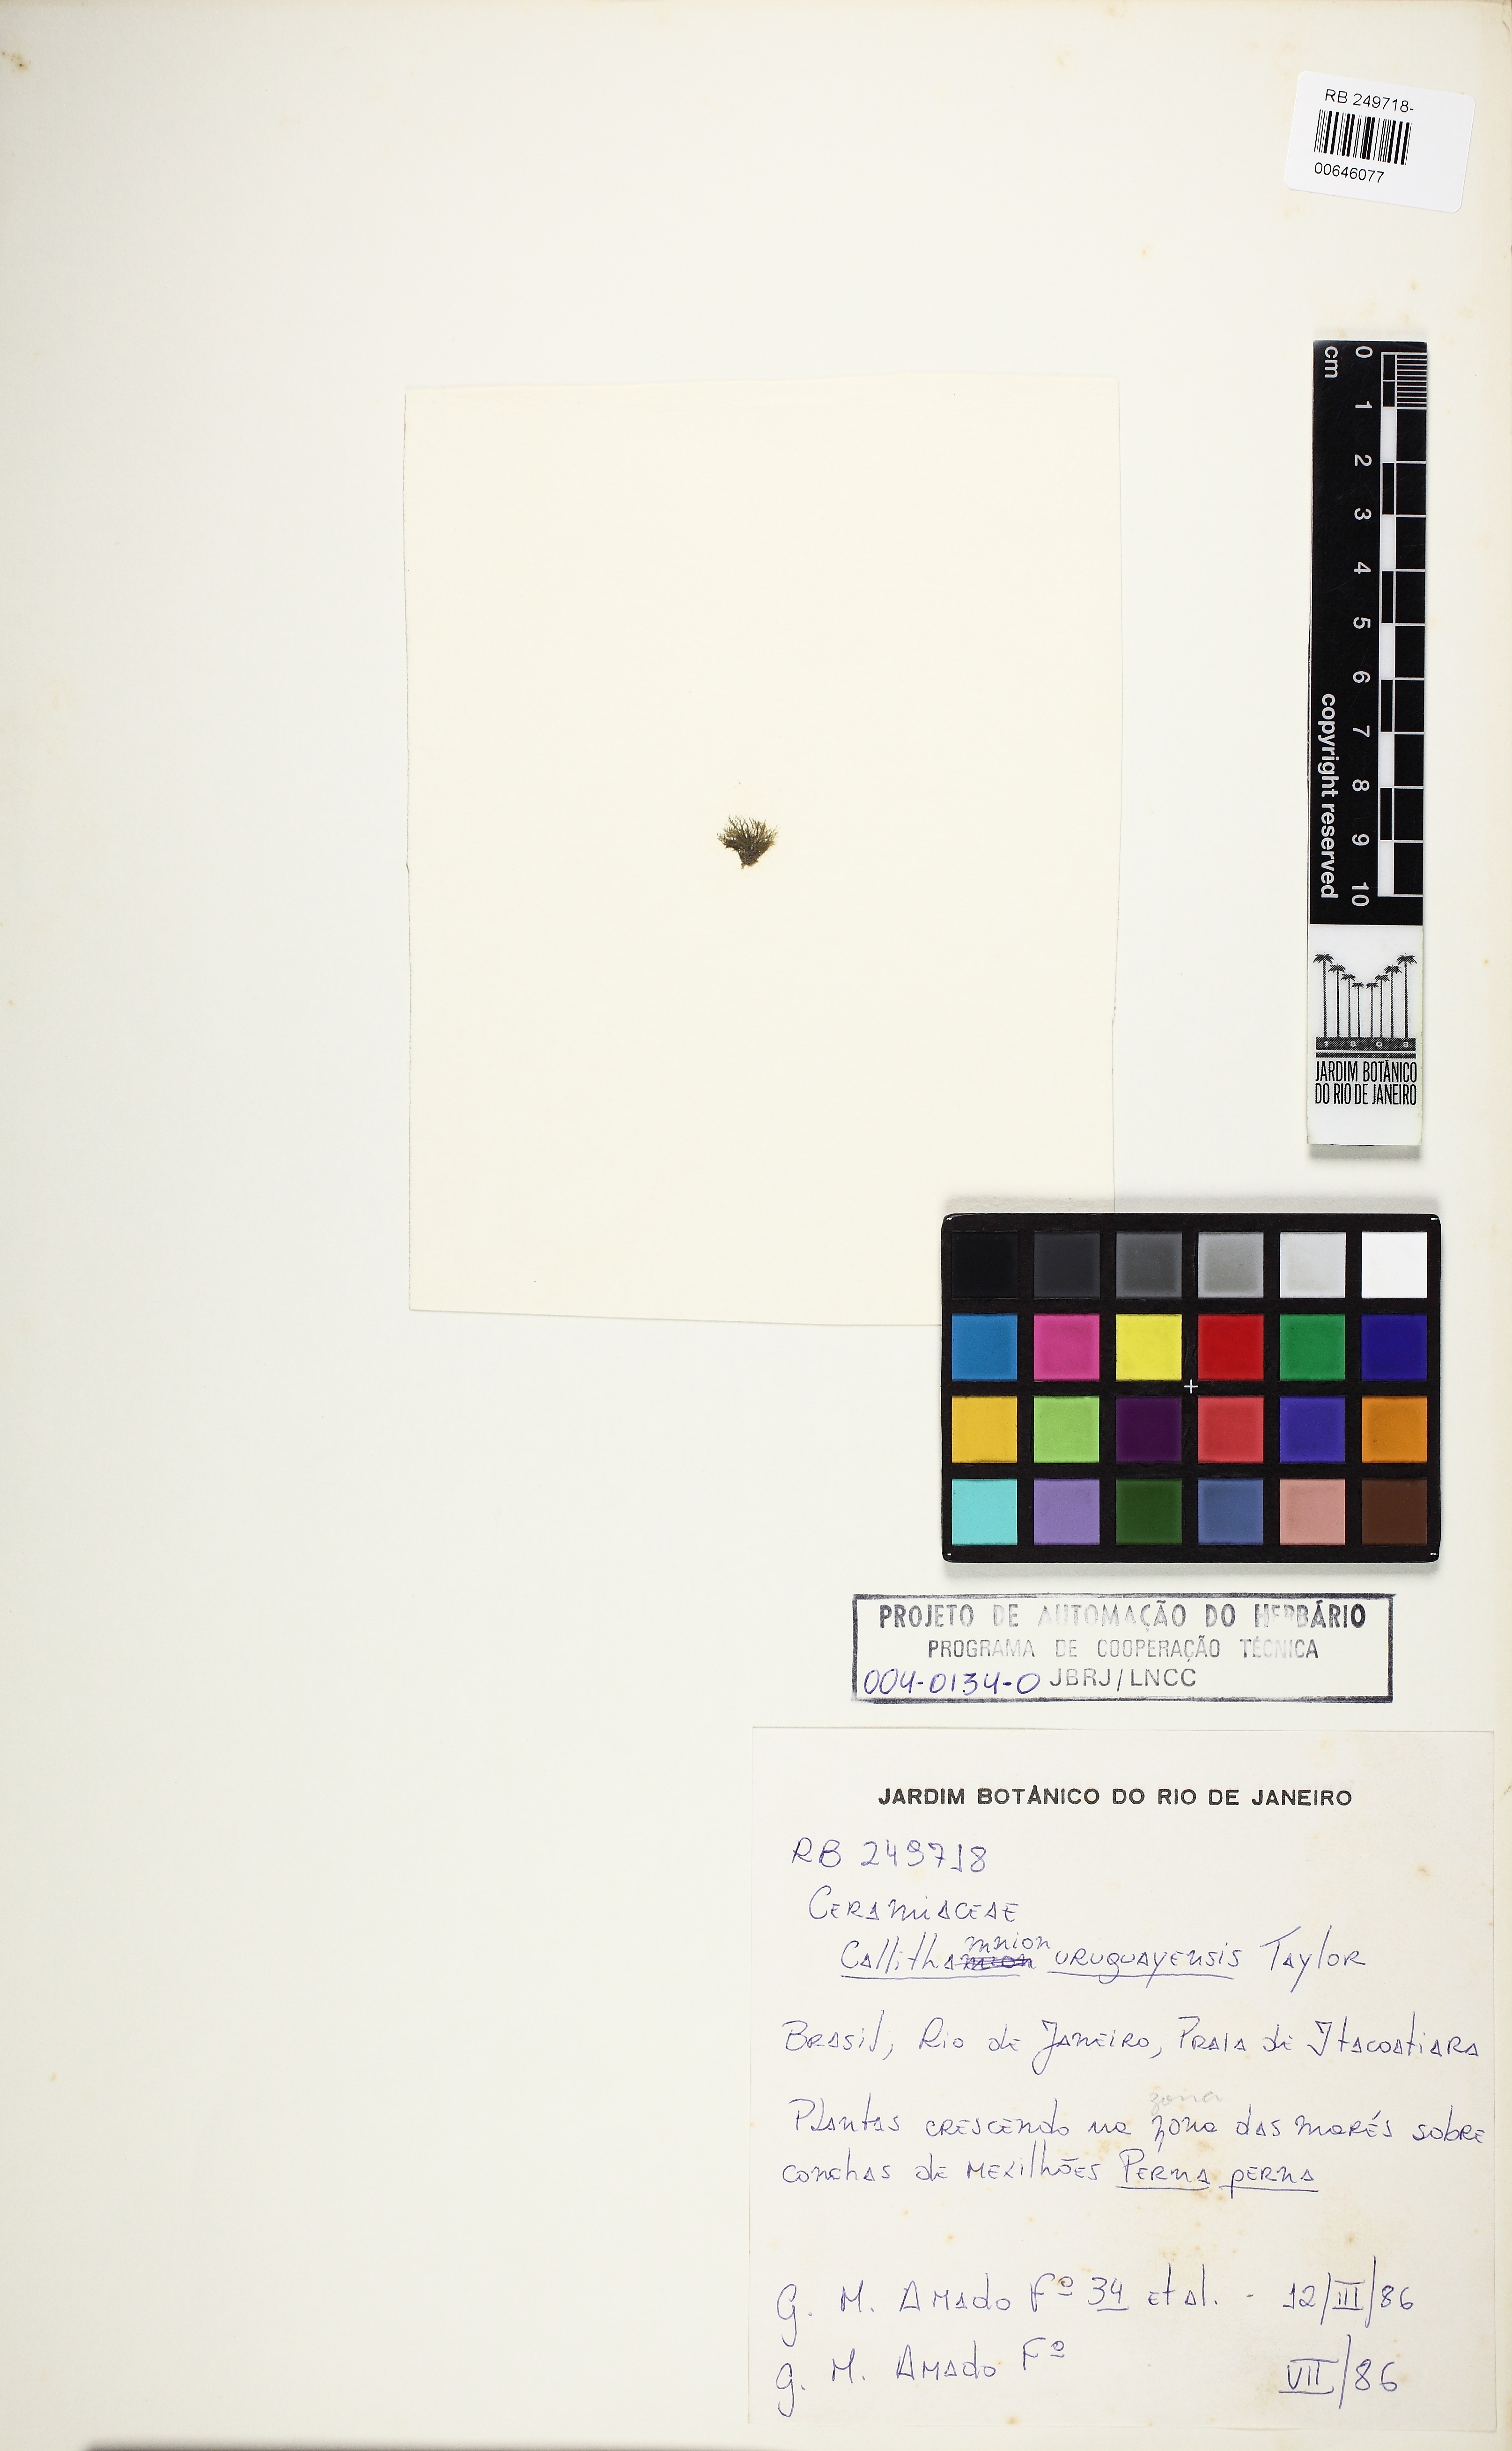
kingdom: Plantae
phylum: Rhodophyta
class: Florideophyceae
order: Ceramiales
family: Callithamniaceae
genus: Aglaothamnion
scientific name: Aglaothamnion uruguayense
